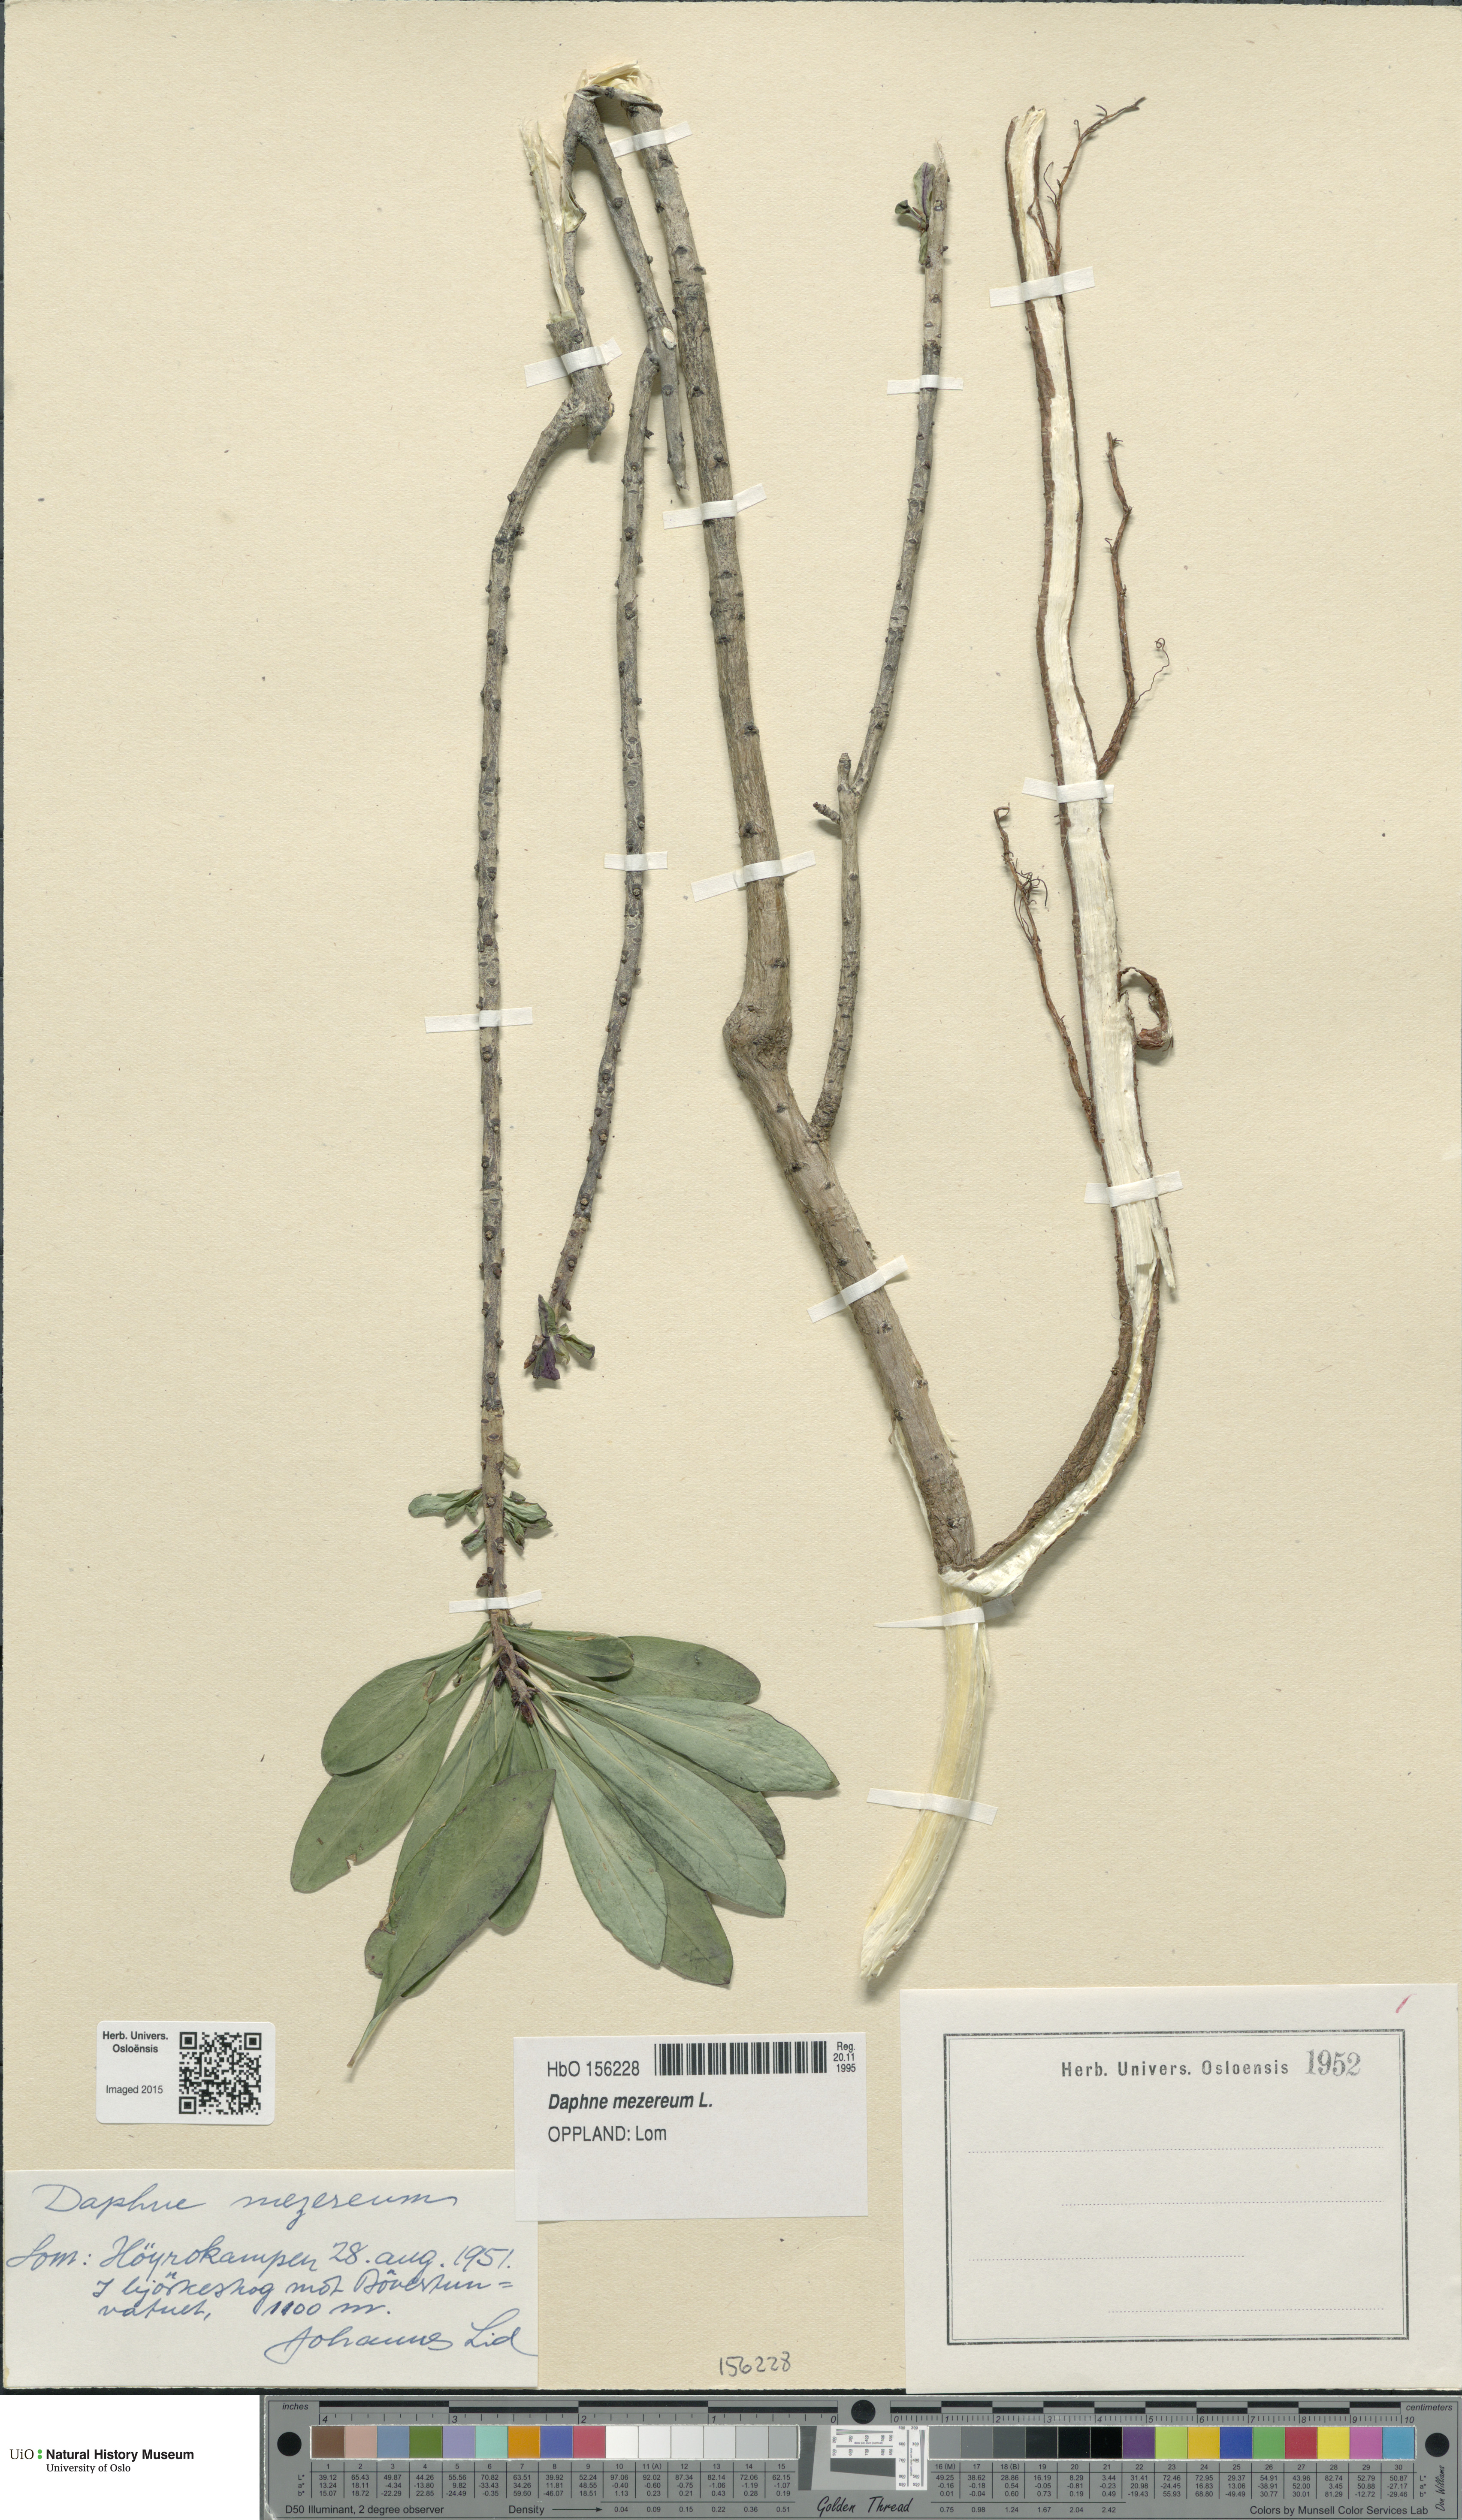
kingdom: Plantae
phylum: Tracheophyta
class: Magnoliopsida
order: Malvales
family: Thymelaeaceae
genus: Daphne
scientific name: Daphne mezereum
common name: Mezereon
